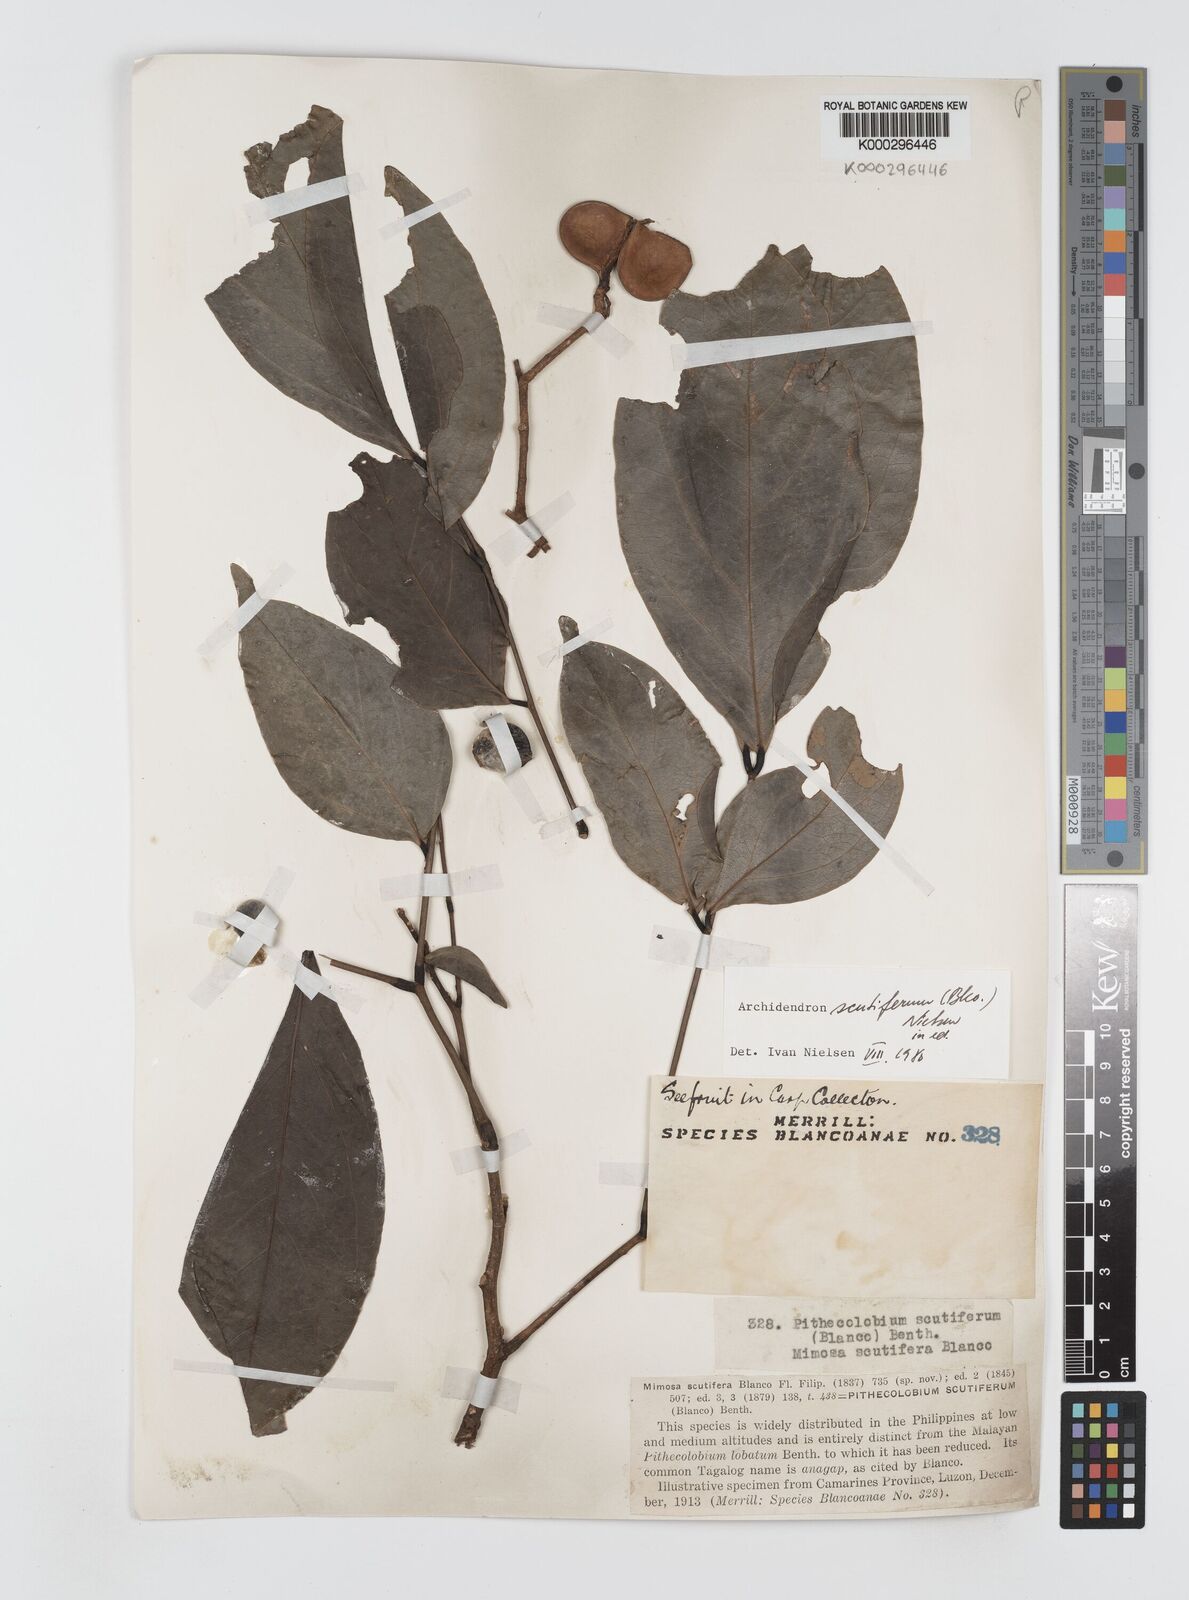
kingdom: Plantae
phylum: Tracheophyta
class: Magnoliopsida
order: Fabales
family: Fabaceae
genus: Archidendron
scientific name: Archidendron scutiferum
